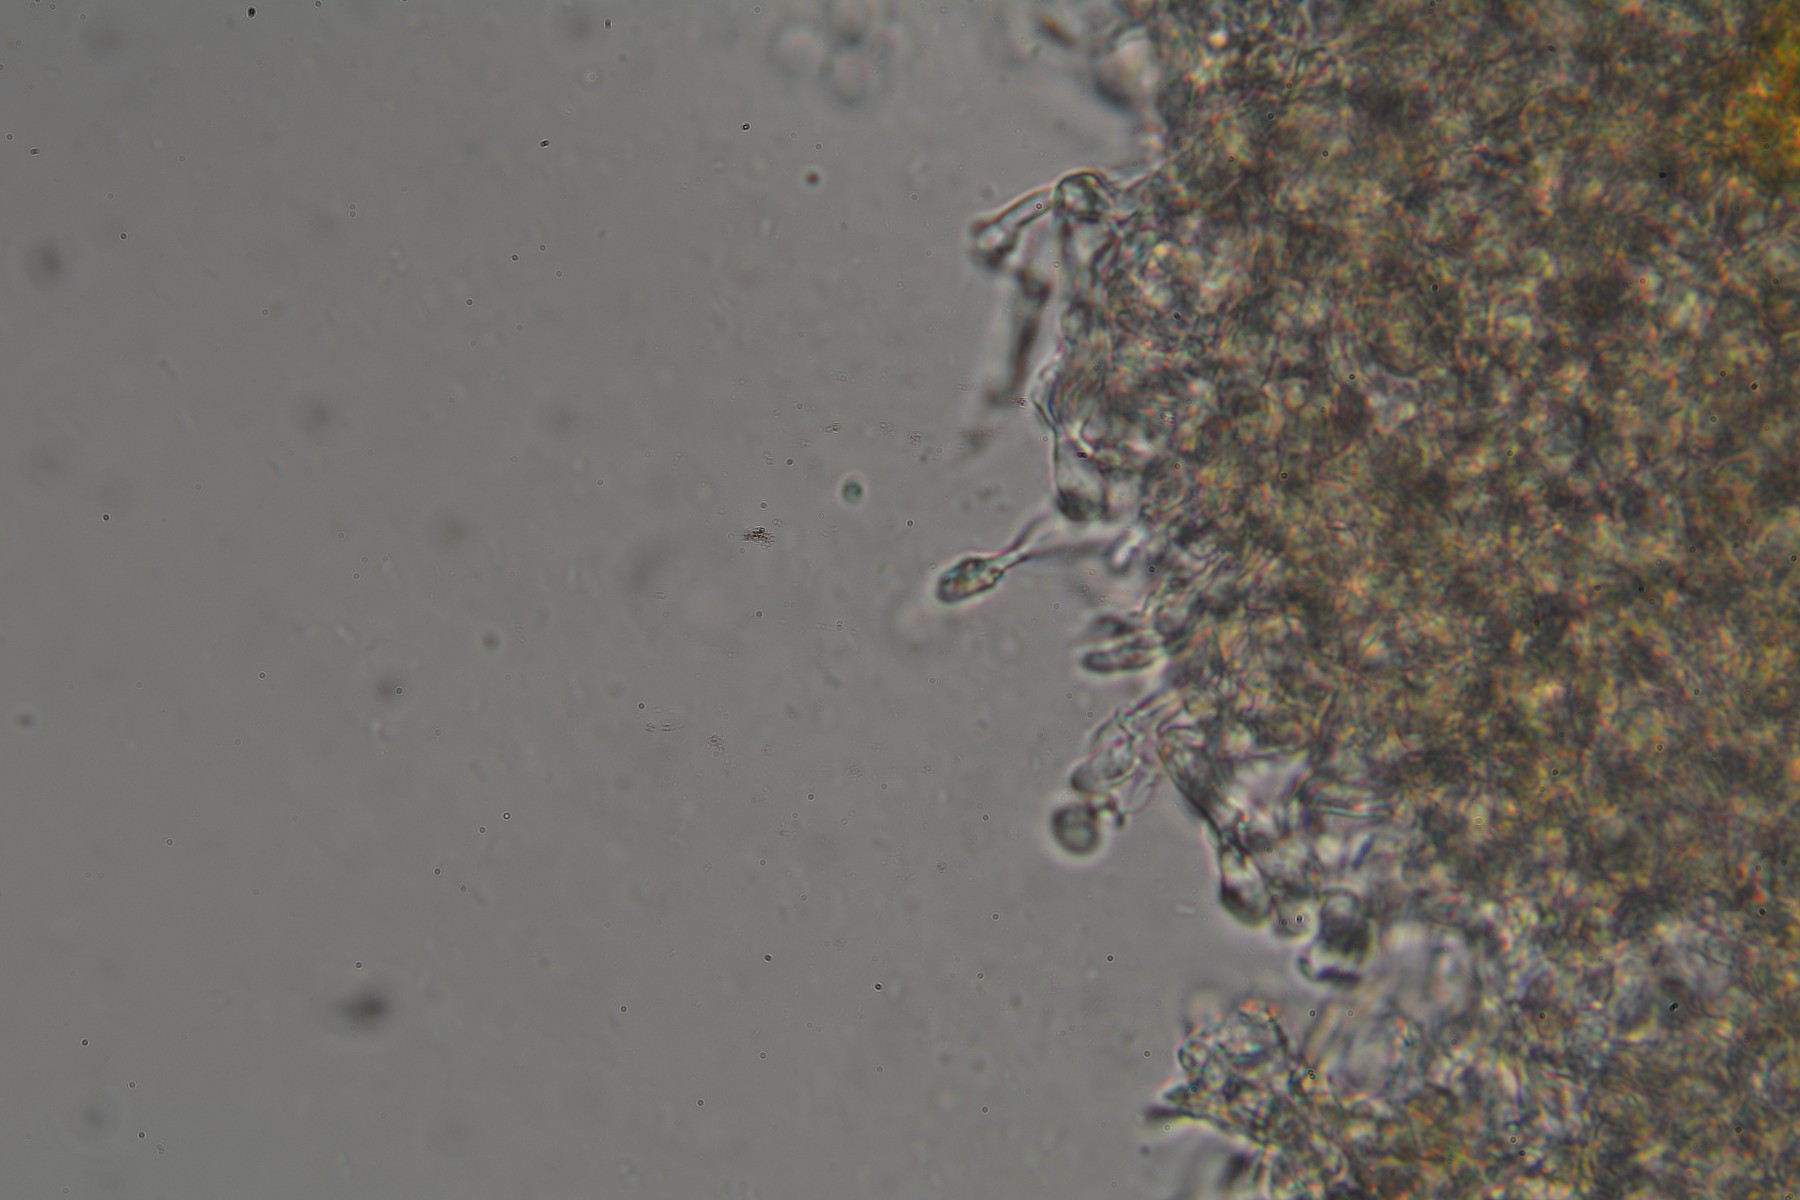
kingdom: Fungi
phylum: Basidiomycota
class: Agaricomycetes
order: Hymenochaetales
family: Hyphodontiaceae
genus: Hyphodontia
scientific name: Hyphodontia arguta
